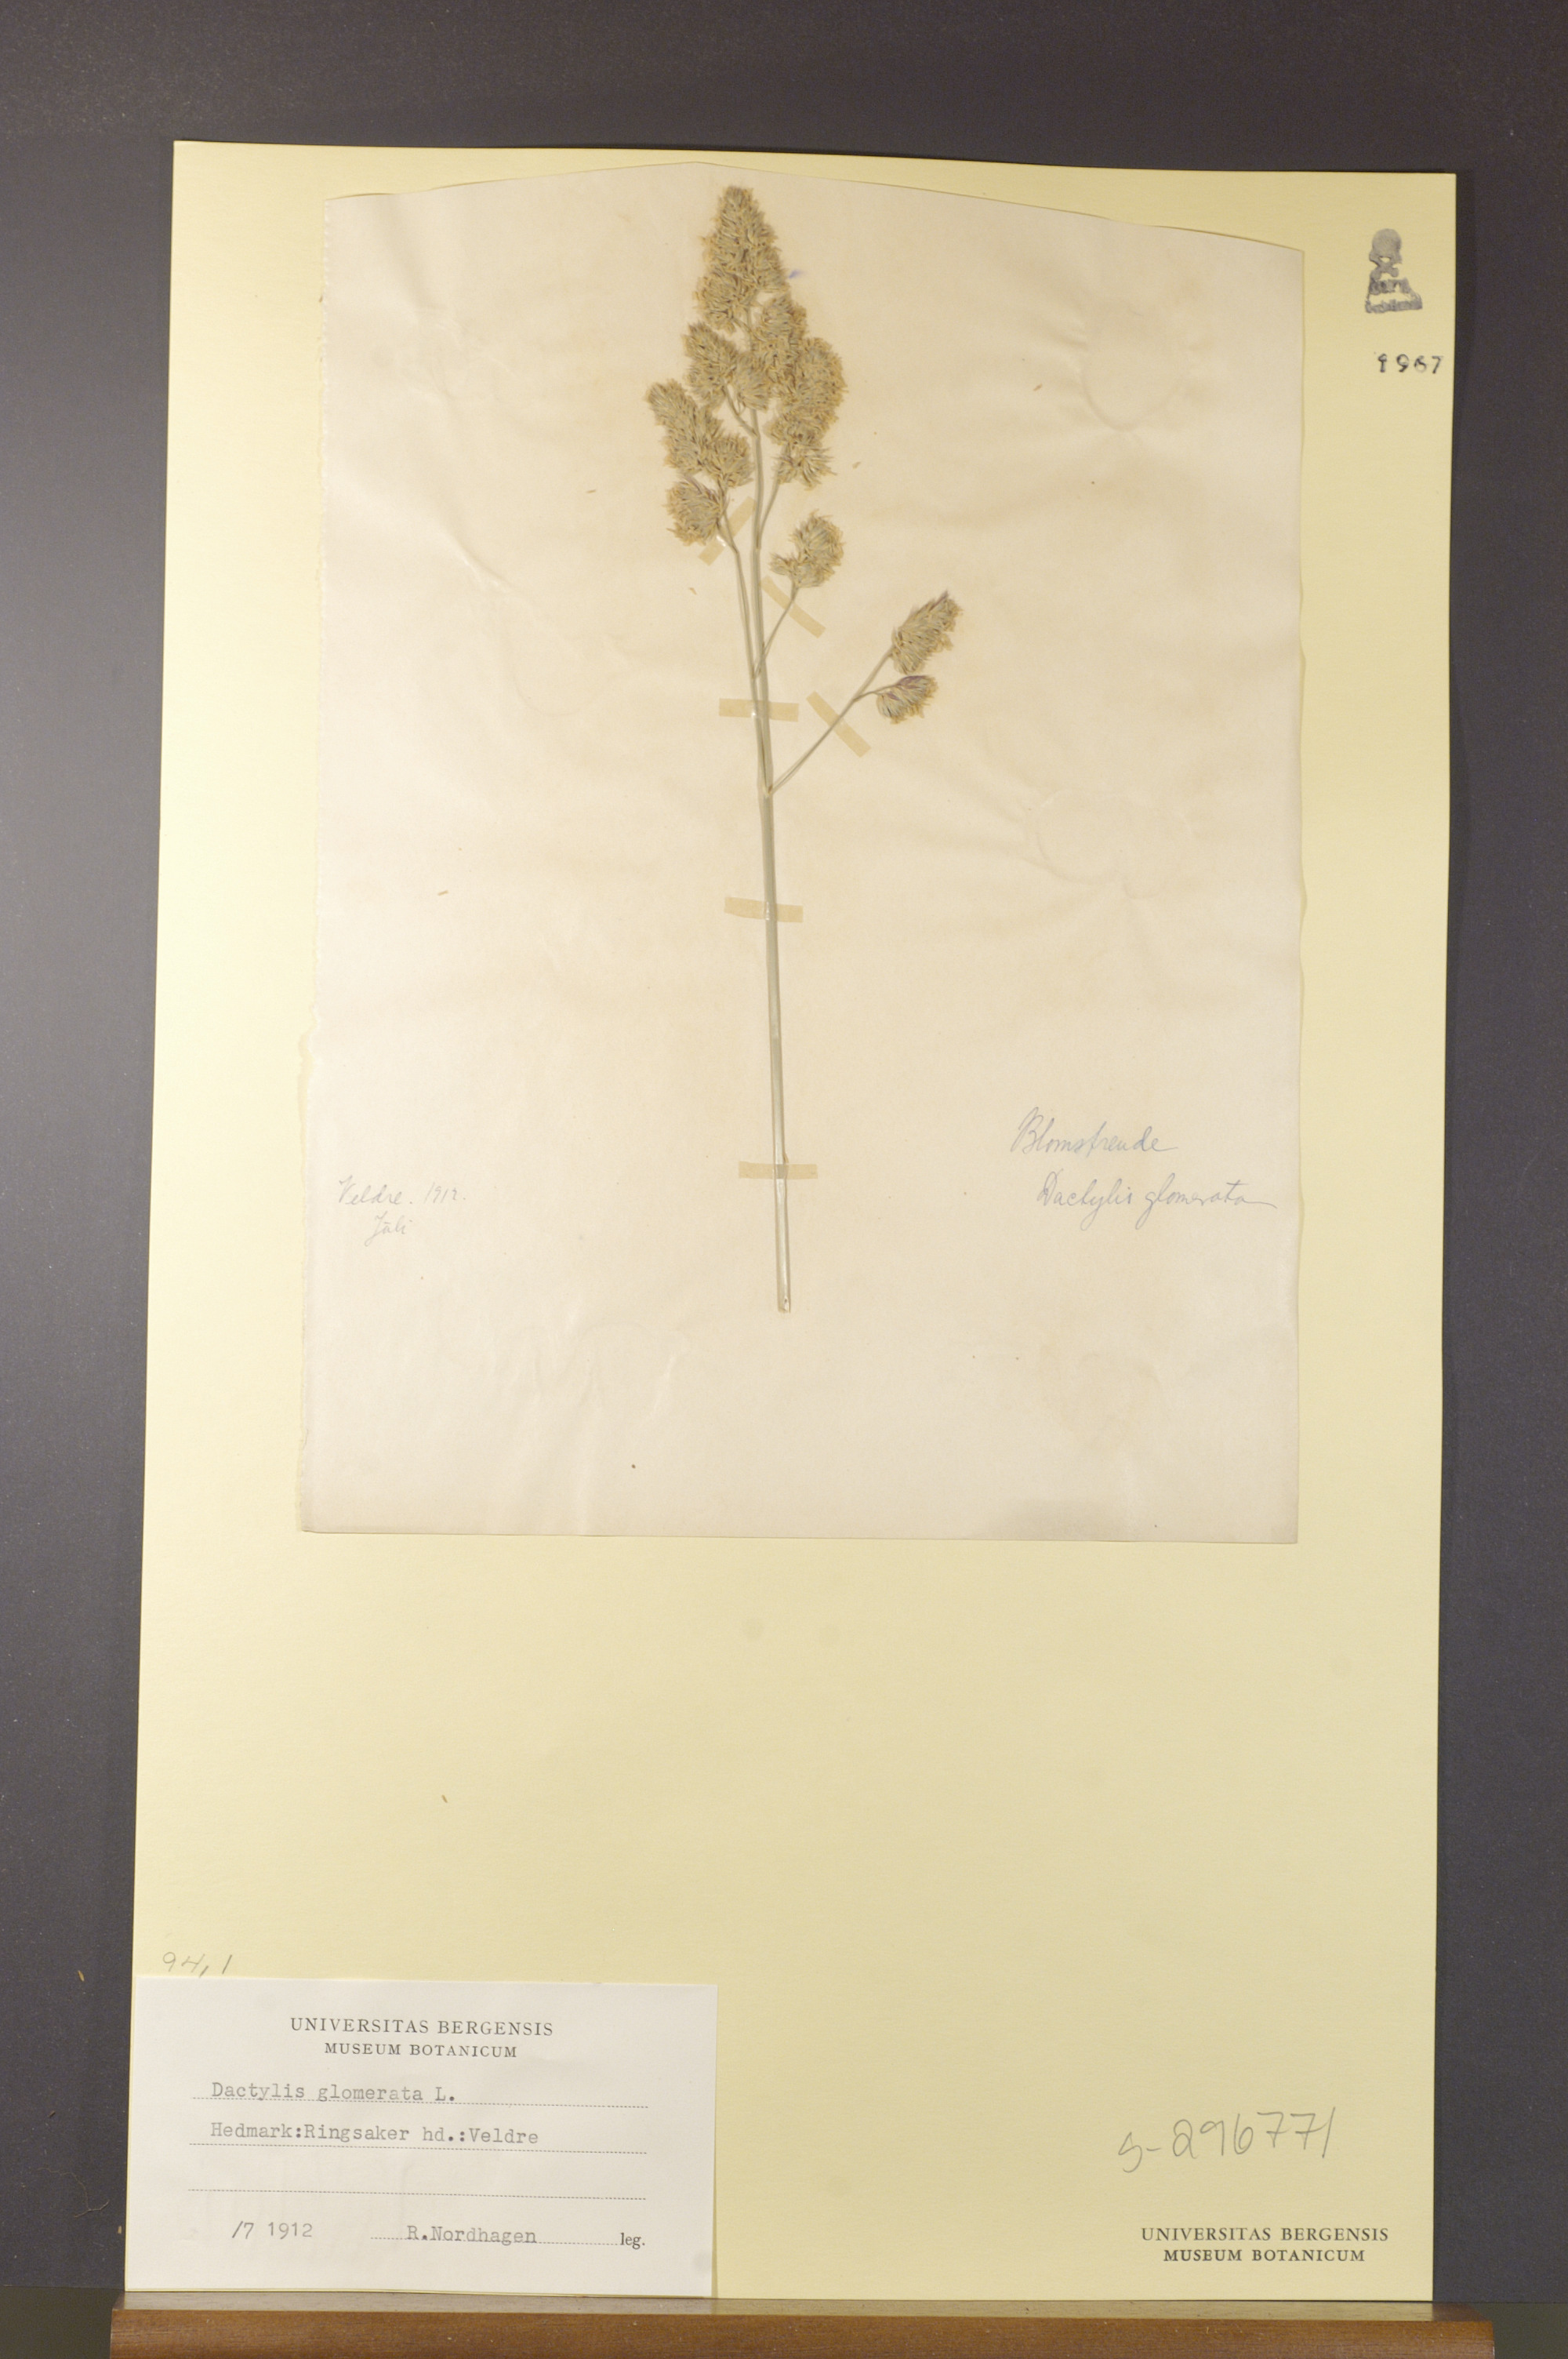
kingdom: Plantae
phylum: Tracheophyta
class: Liliopsida
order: Poales
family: Poaceae
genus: Dactylis
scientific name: Dactylis glomerata
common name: Orchardgrass
